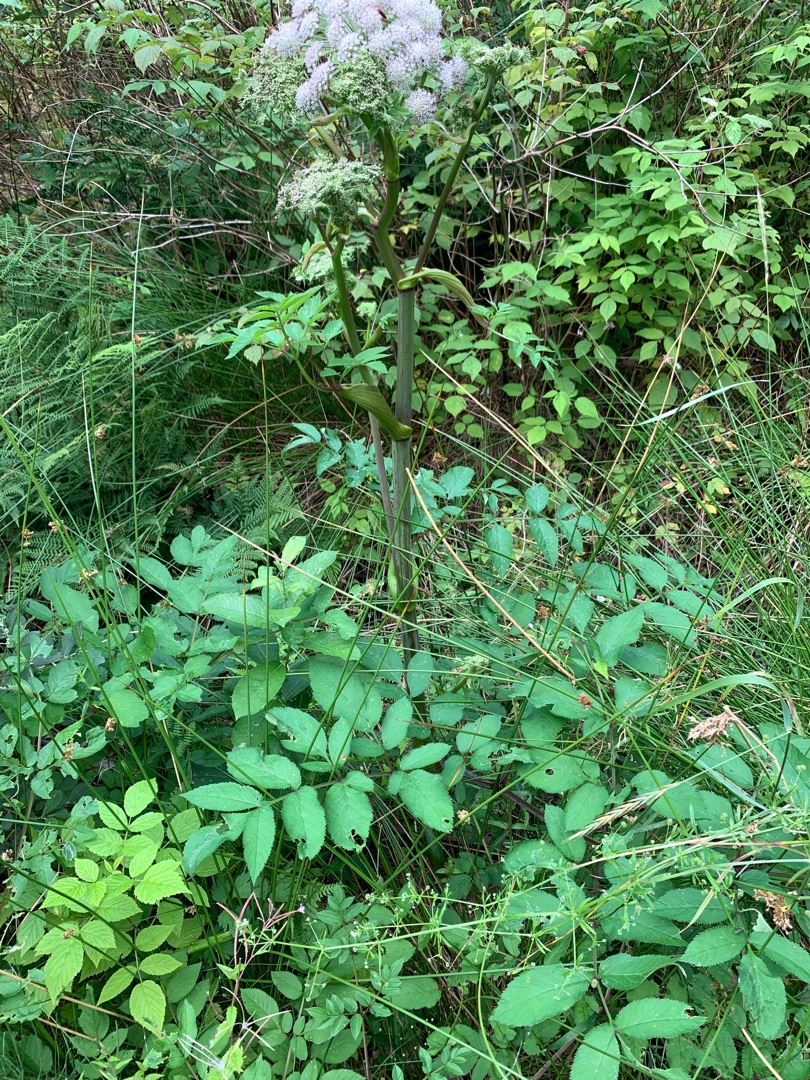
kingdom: Plantae
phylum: Tracheophyta
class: Magnoliopsida
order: Apiales
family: Apiaceae
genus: Angelica
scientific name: Angelica sylvestris
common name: Angelik
